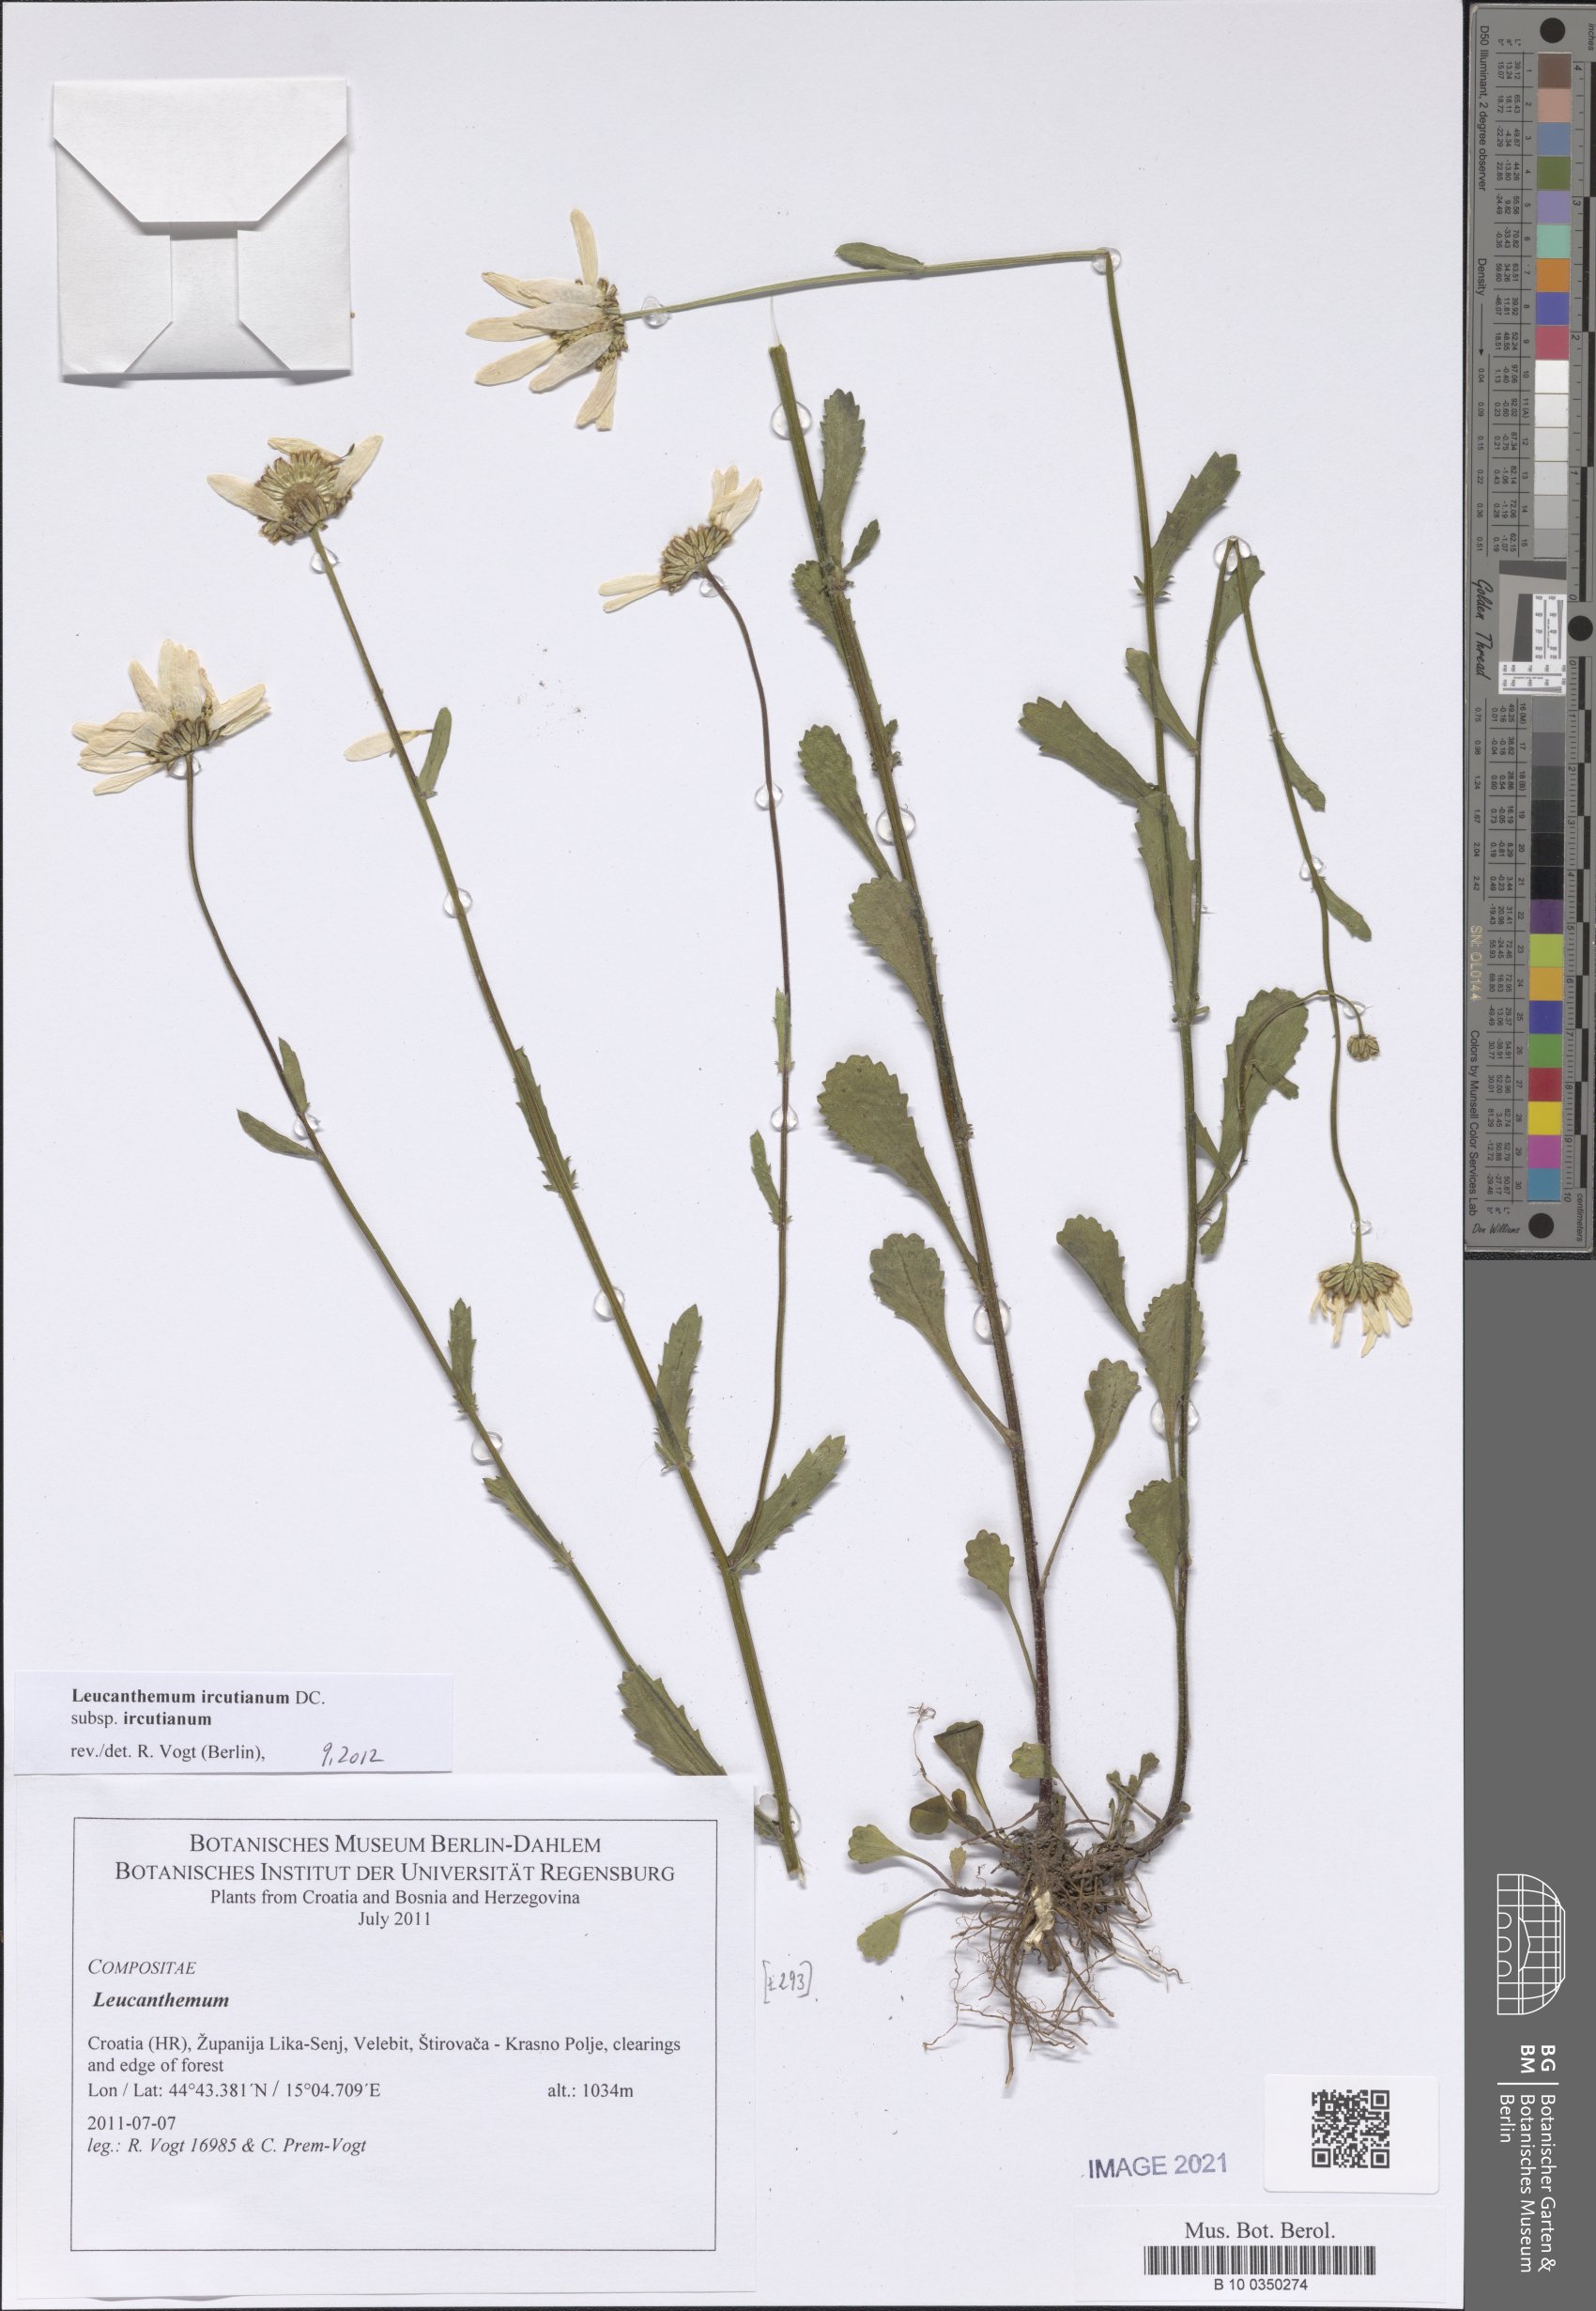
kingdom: Plantae
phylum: Tracheophyta
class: Magnoliopsida
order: Asterales
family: Asteraceae
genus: Leucanthemum
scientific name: Leucanthemum ircutianum
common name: Daisy
